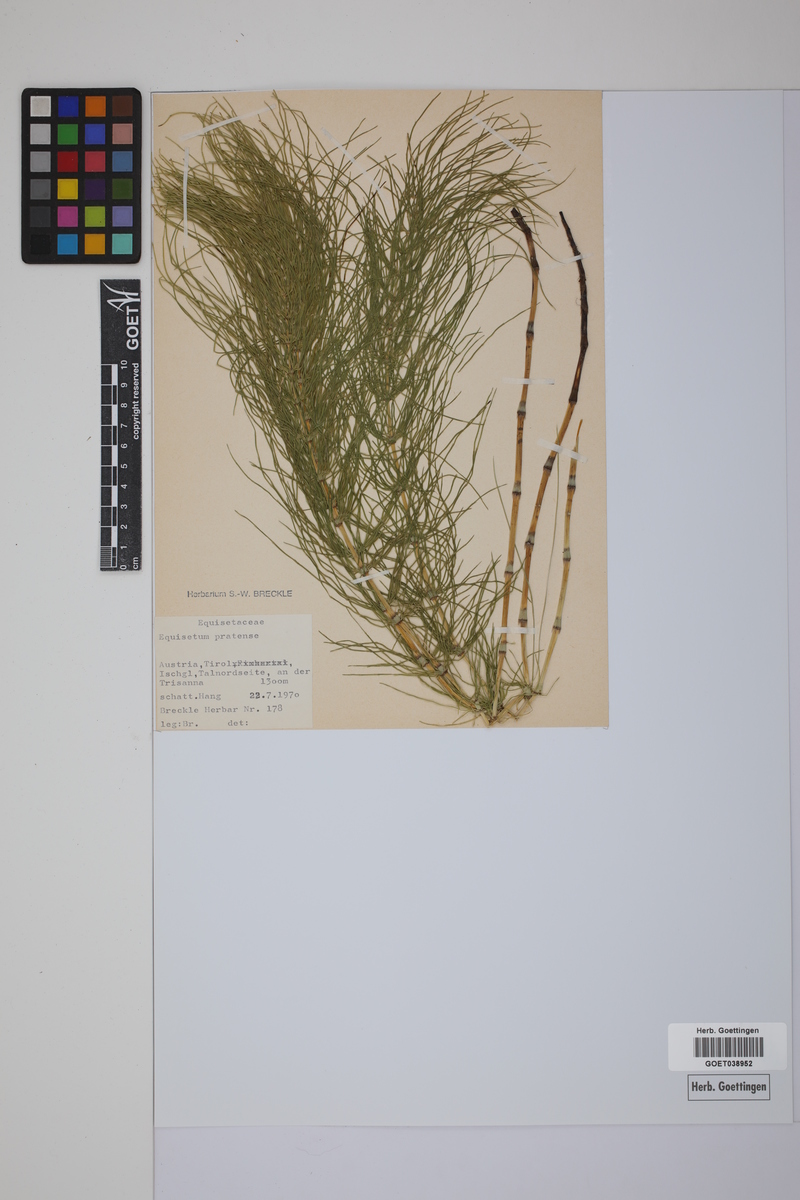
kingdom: Plantae
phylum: Tracheophyta
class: Polypodiopsida
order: Equisetales
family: Equisetaceae
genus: Equisetum
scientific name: Equisetum pratense
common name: Meadow horsetail
